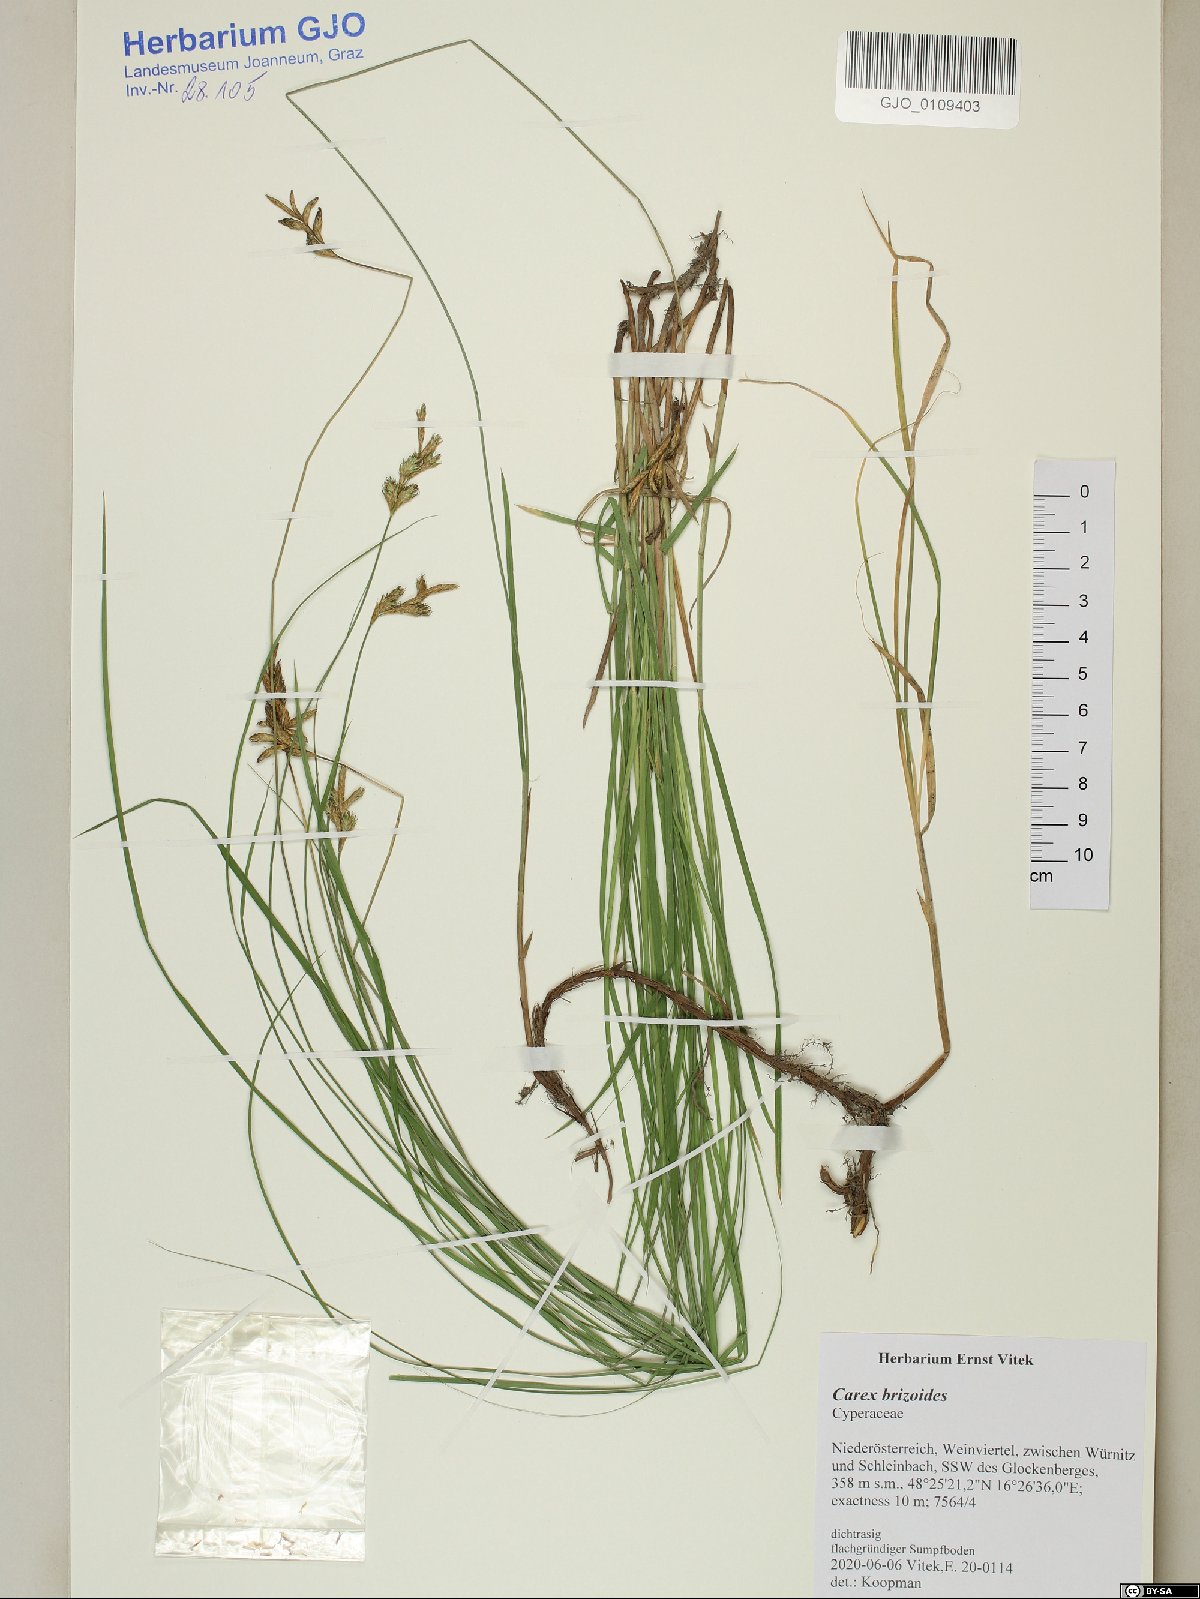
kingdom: Plantae
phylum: Tracheophyta
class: Liliopsida
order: Poales
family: Cyperaceae
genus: Carex
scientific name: Carex brizoides
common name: Quaking-grass sedge
